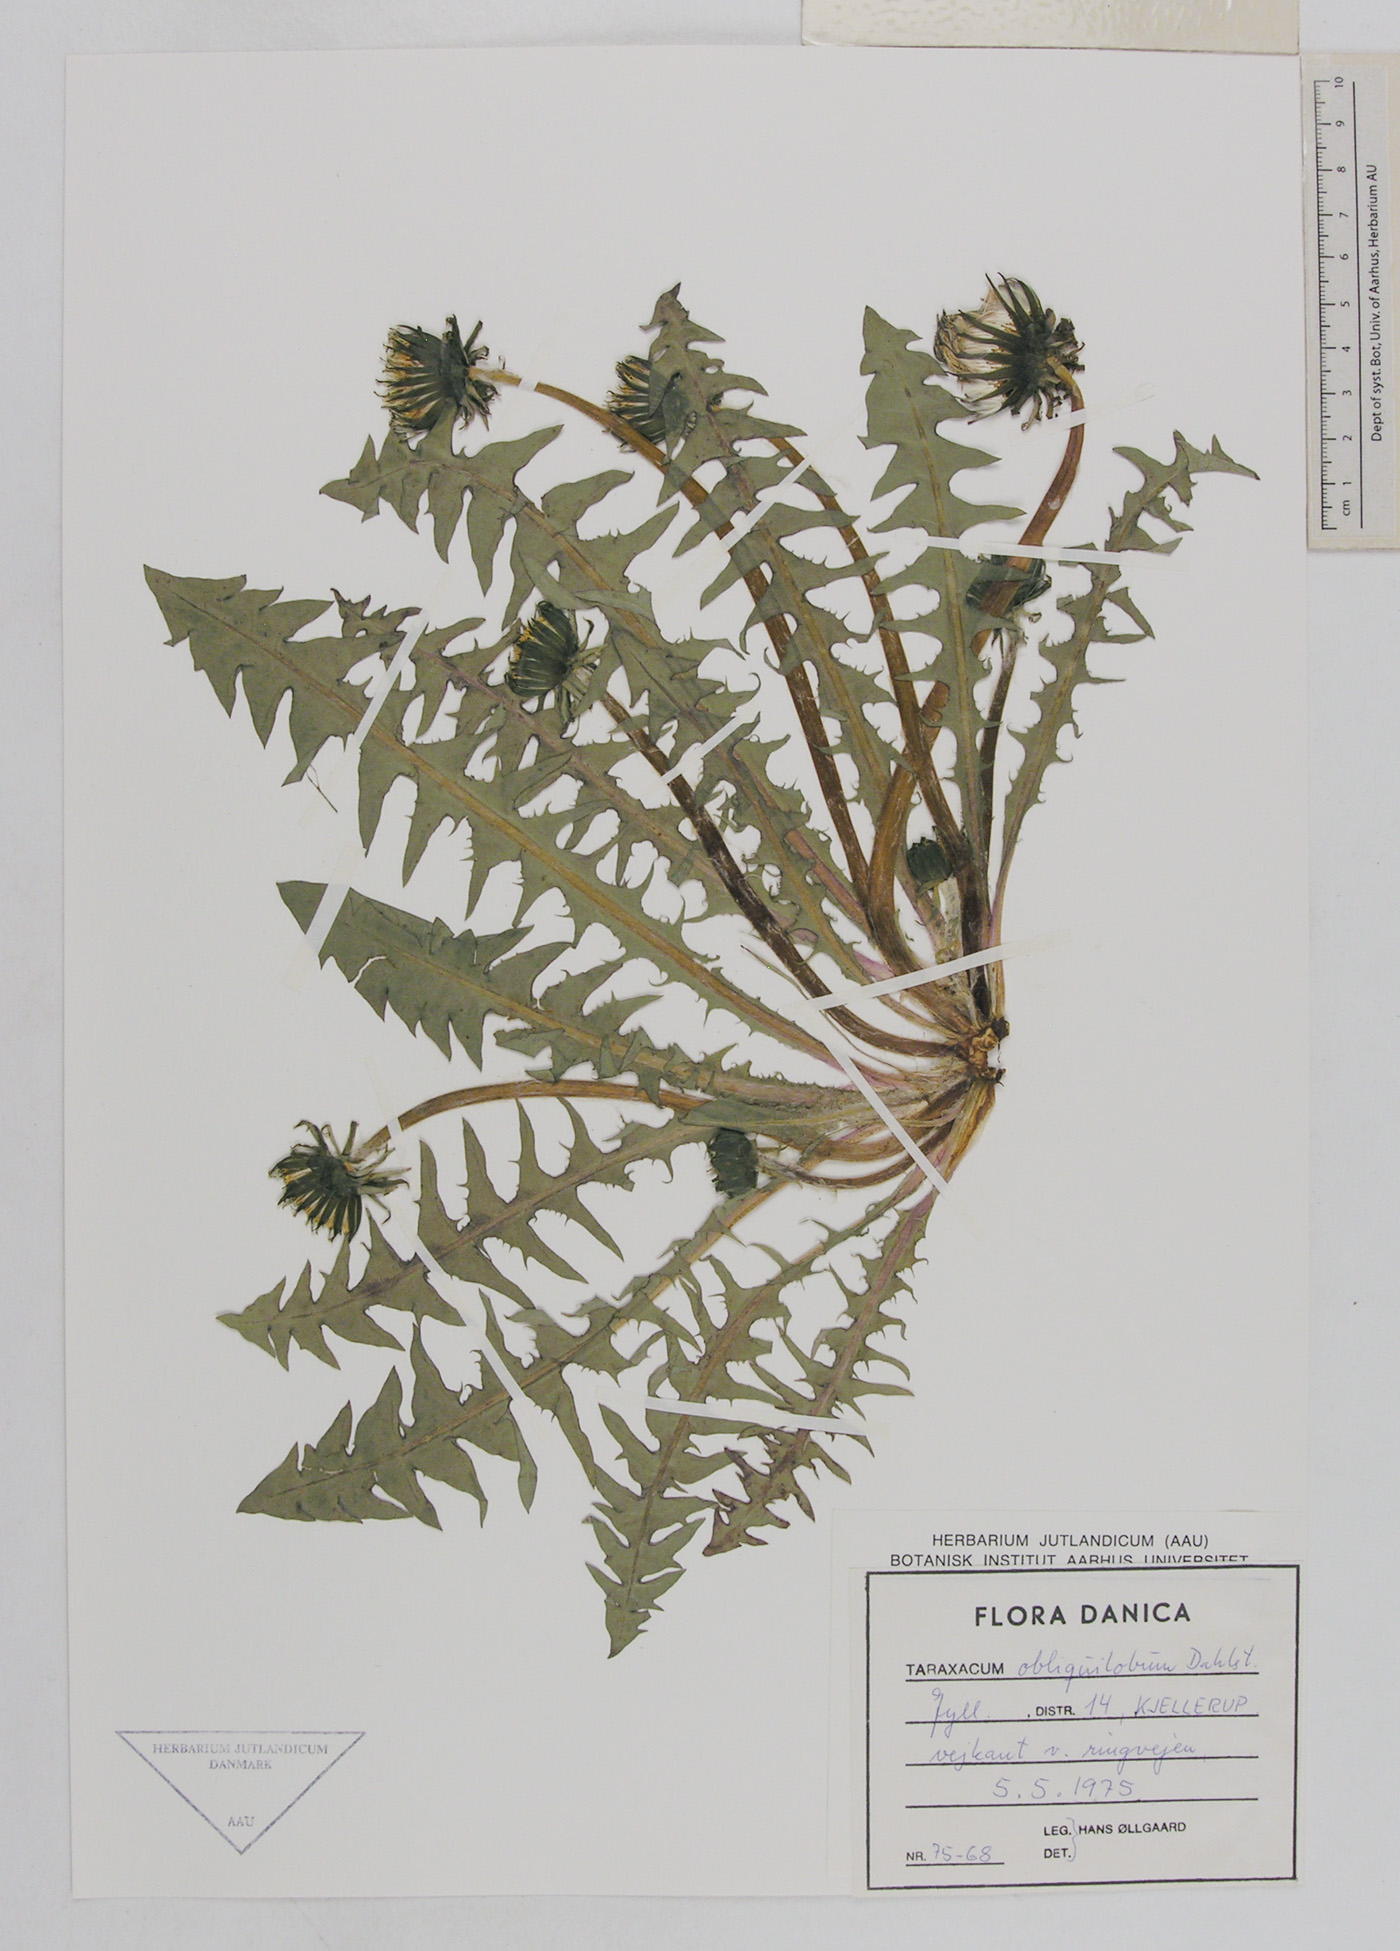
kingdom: Plantae
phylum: Tracheophyta
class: Magnoliopsida
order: Asterales
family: Asteraceae
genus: Taraxacum
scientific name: Taraxacum obliquilobum
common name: Orange-tipped dandelion
